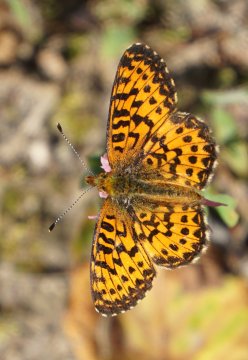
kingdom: Animalia
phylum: Arthropoda
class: Insecta
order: Lepidoptera
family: Nymphalidae
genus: Boloria
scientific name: Boloria chariclea
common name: Arctic Fritillary
